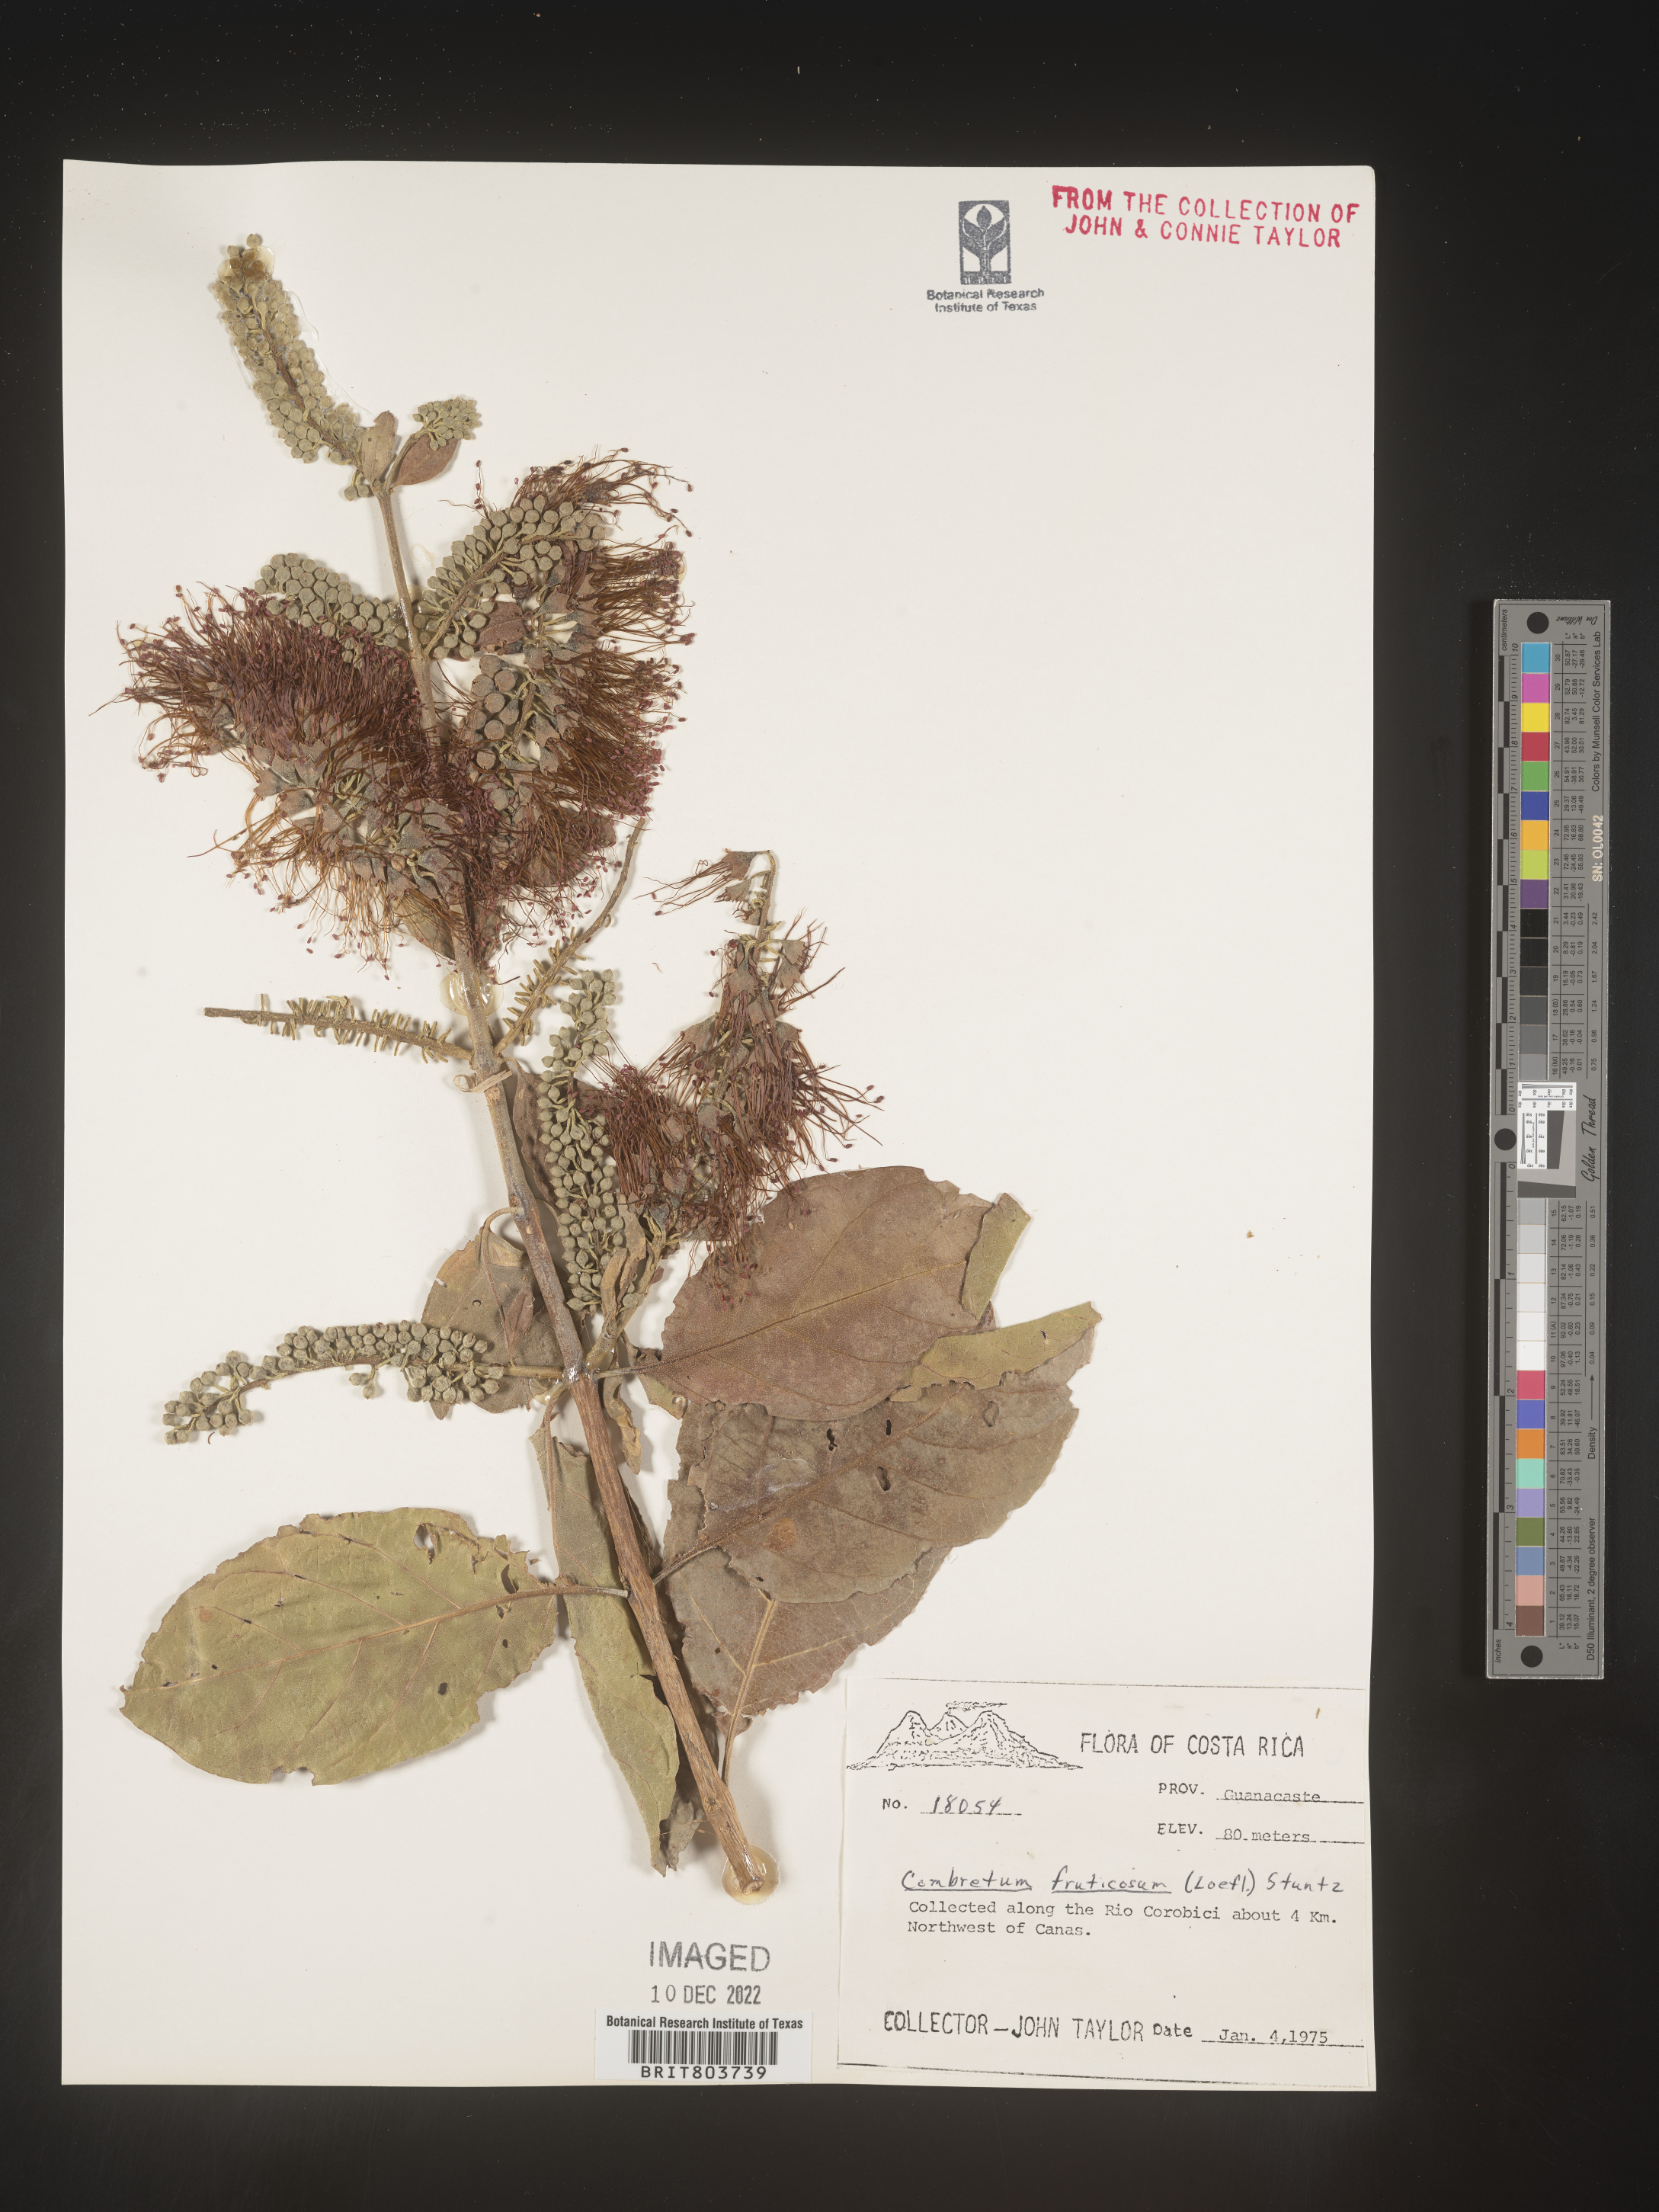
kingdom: Plantae
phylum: Tracheophyta
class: Magnoliopsida
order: Myrtales
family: Combretaceae
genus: Combretum
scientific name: Combretum
